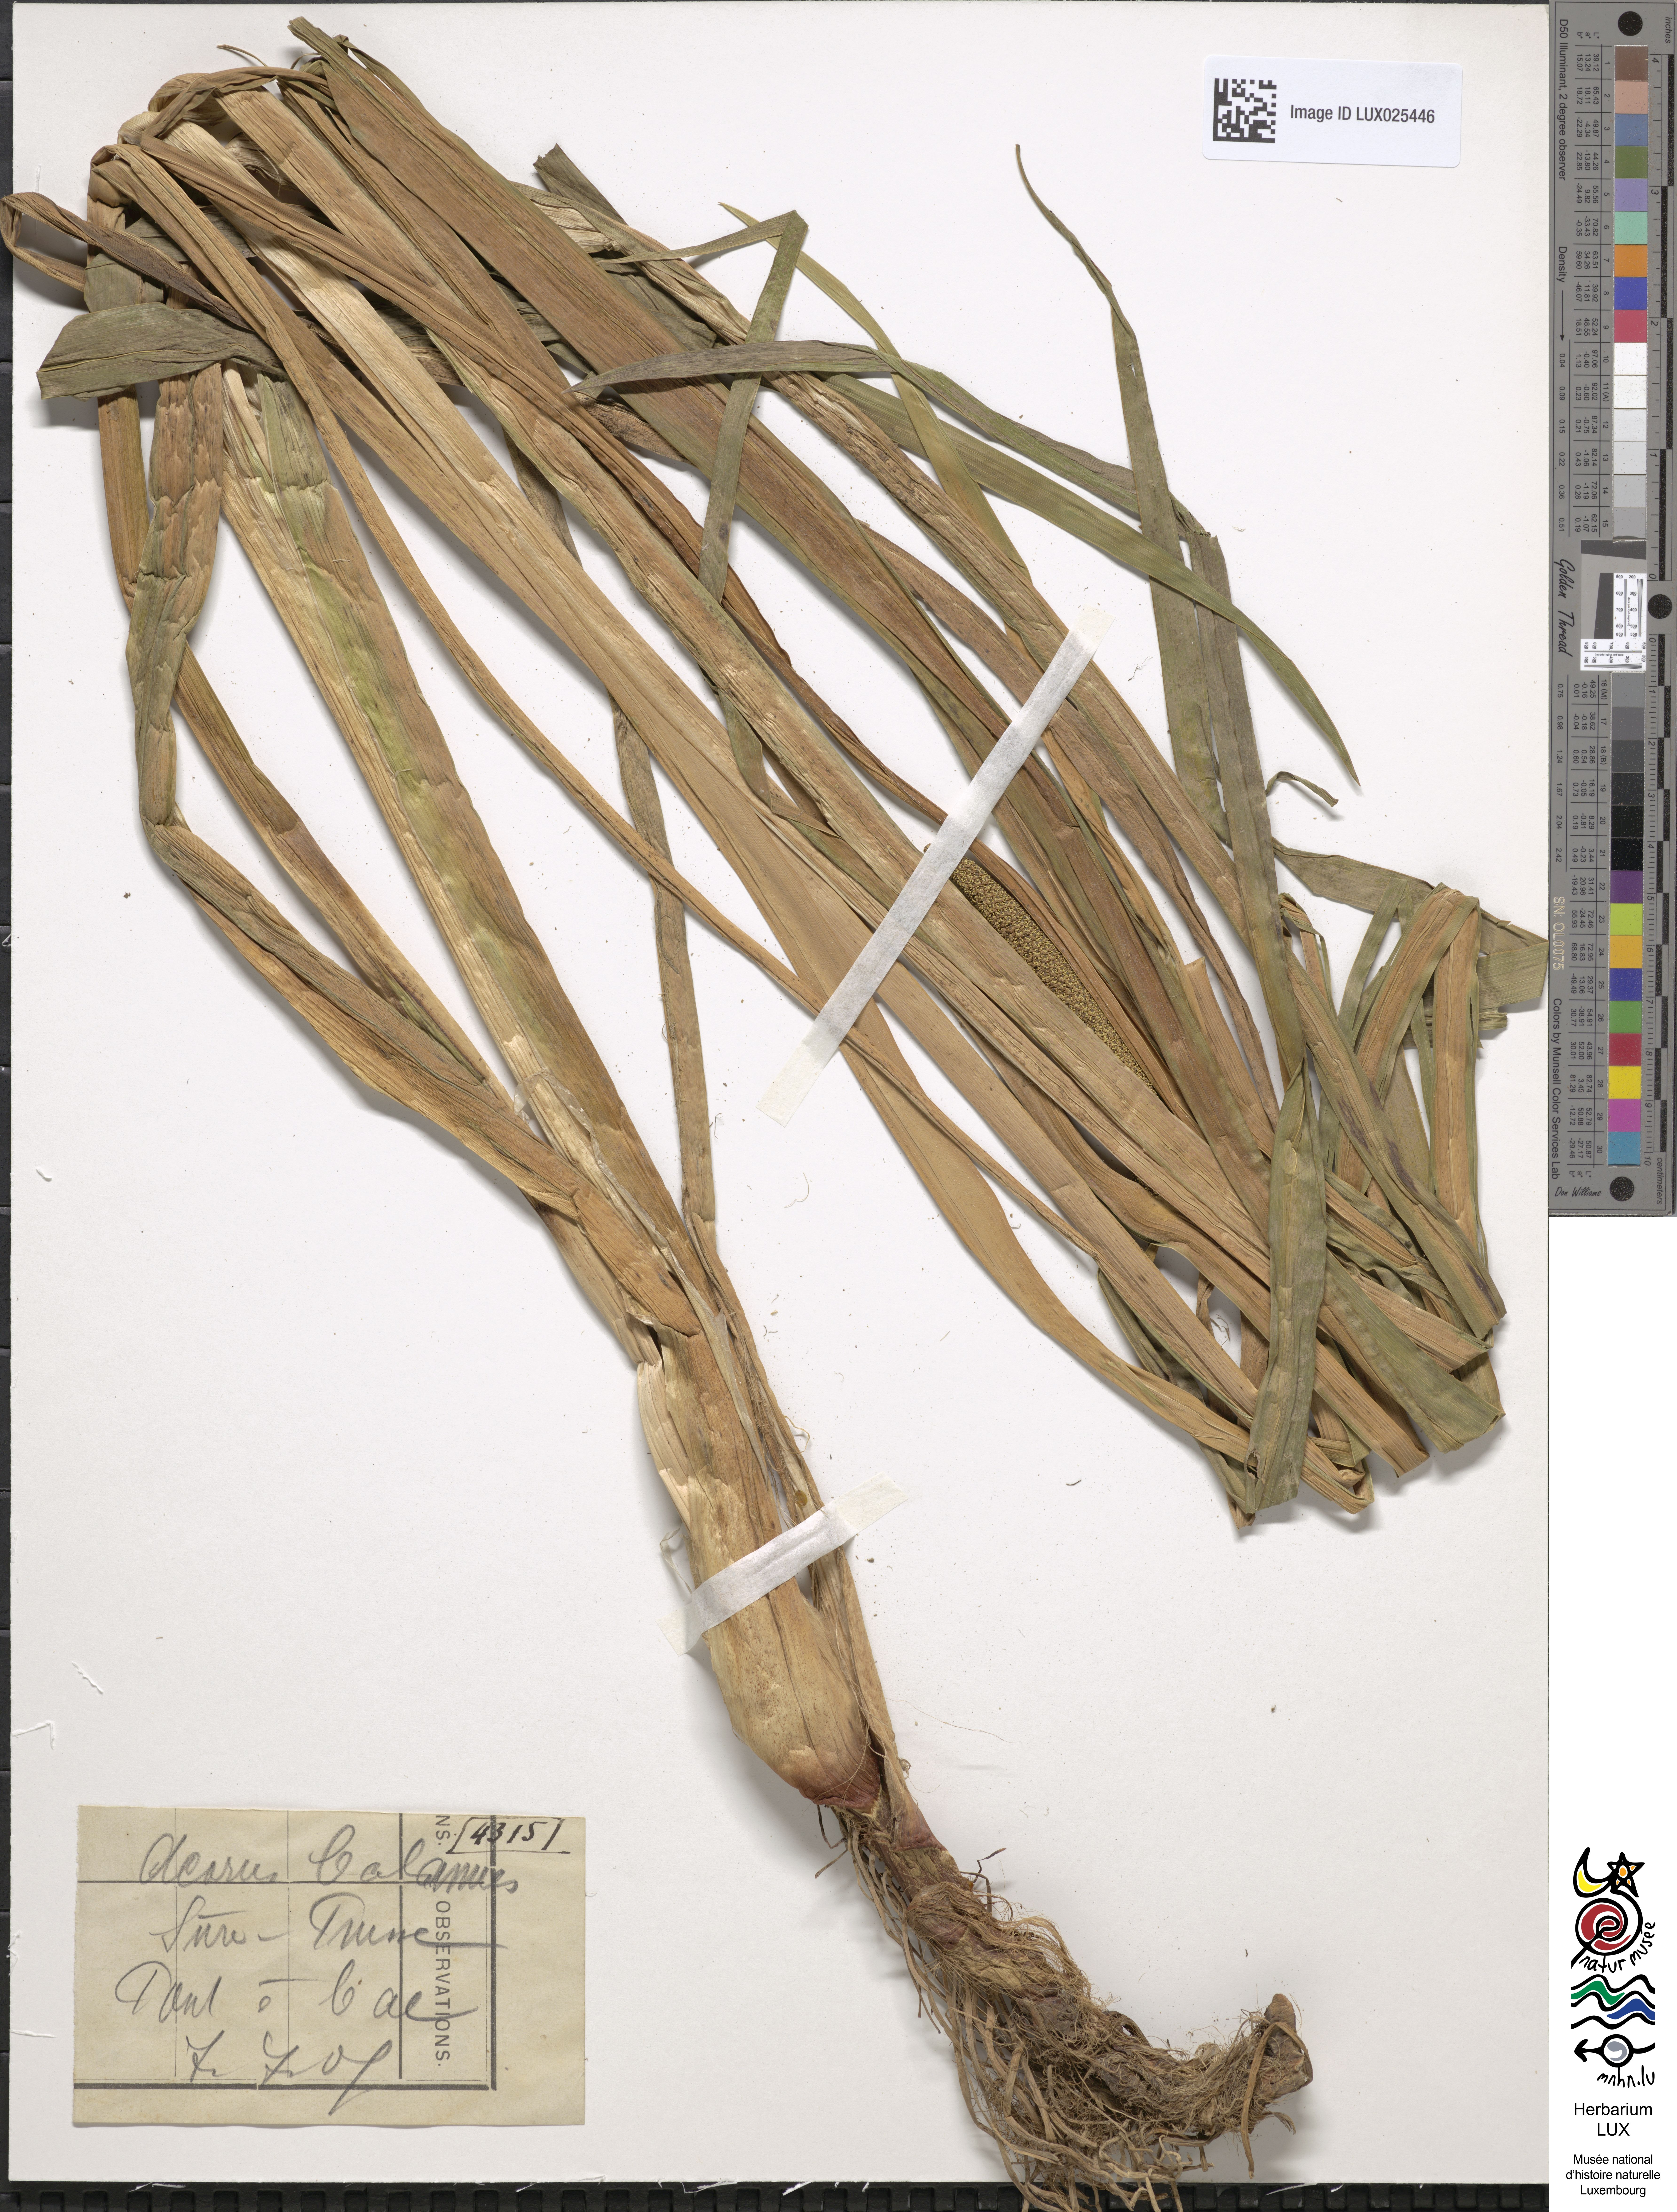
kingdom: Plantae
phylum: Tracheophyta
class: Liliopsida
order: Acorales
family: Acoraceae
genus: Acorus
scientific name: Acorus calamus
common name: Sweet-flag
